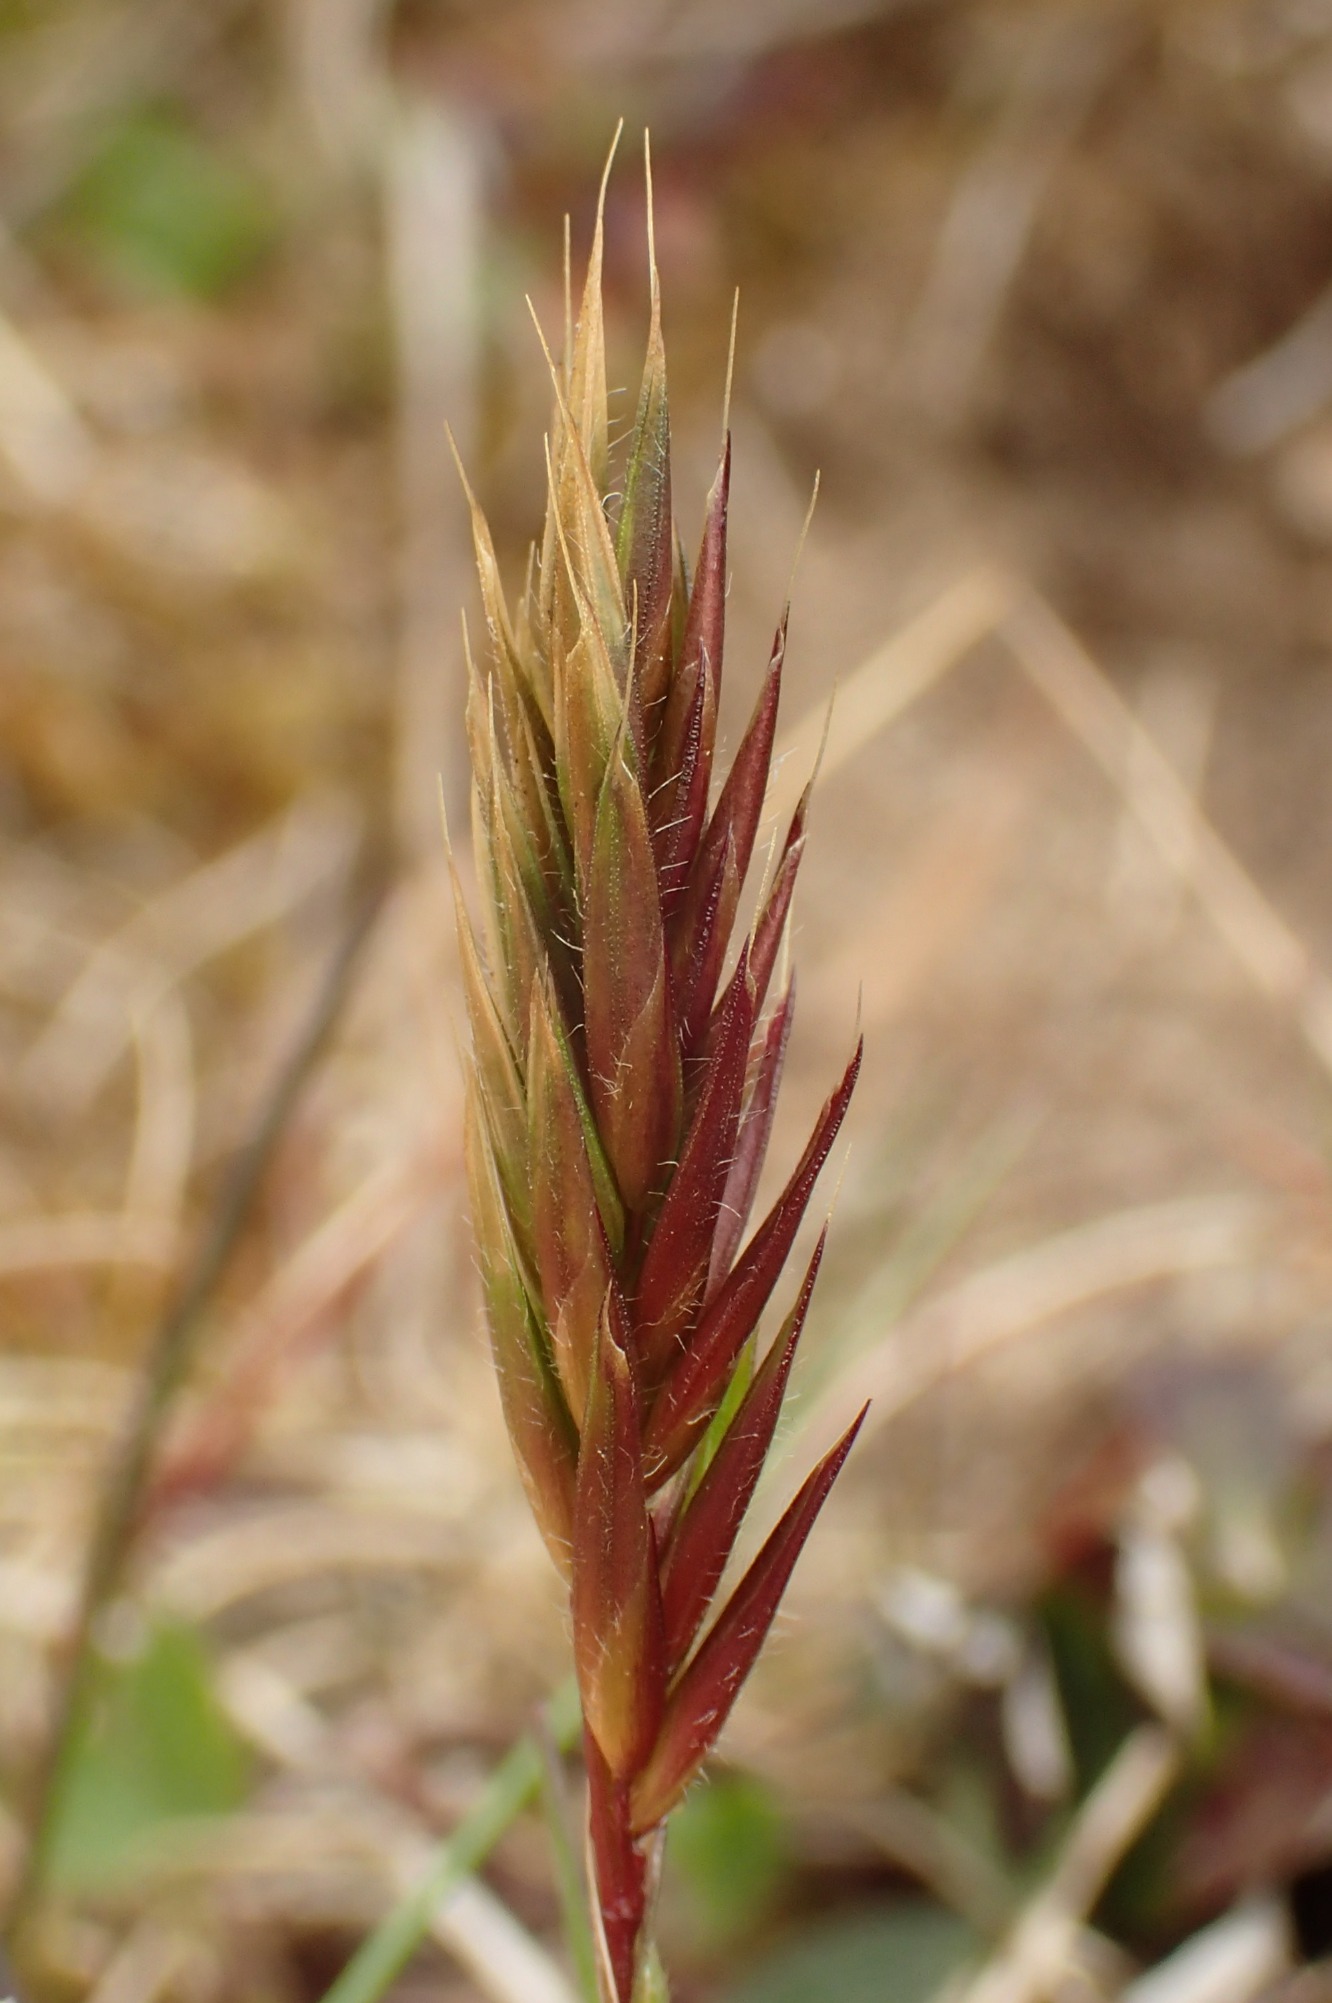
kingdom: Plantae
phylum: Tracheophyta
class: Liliopsida
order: Poales
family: Poaceae
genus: Anthoxanthum
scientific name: Anthoxanthum odoratum
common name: Vellugtende gulaks
